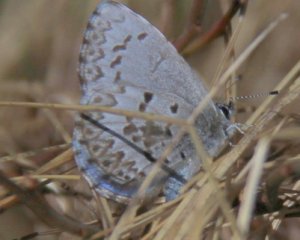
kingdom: Animalia
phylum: Arthropoda
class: Insecta
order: Lepidoptera
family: Lycaenidae
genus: Celastrina
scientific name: Celastrina lucia
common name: Northern Spring Azure
